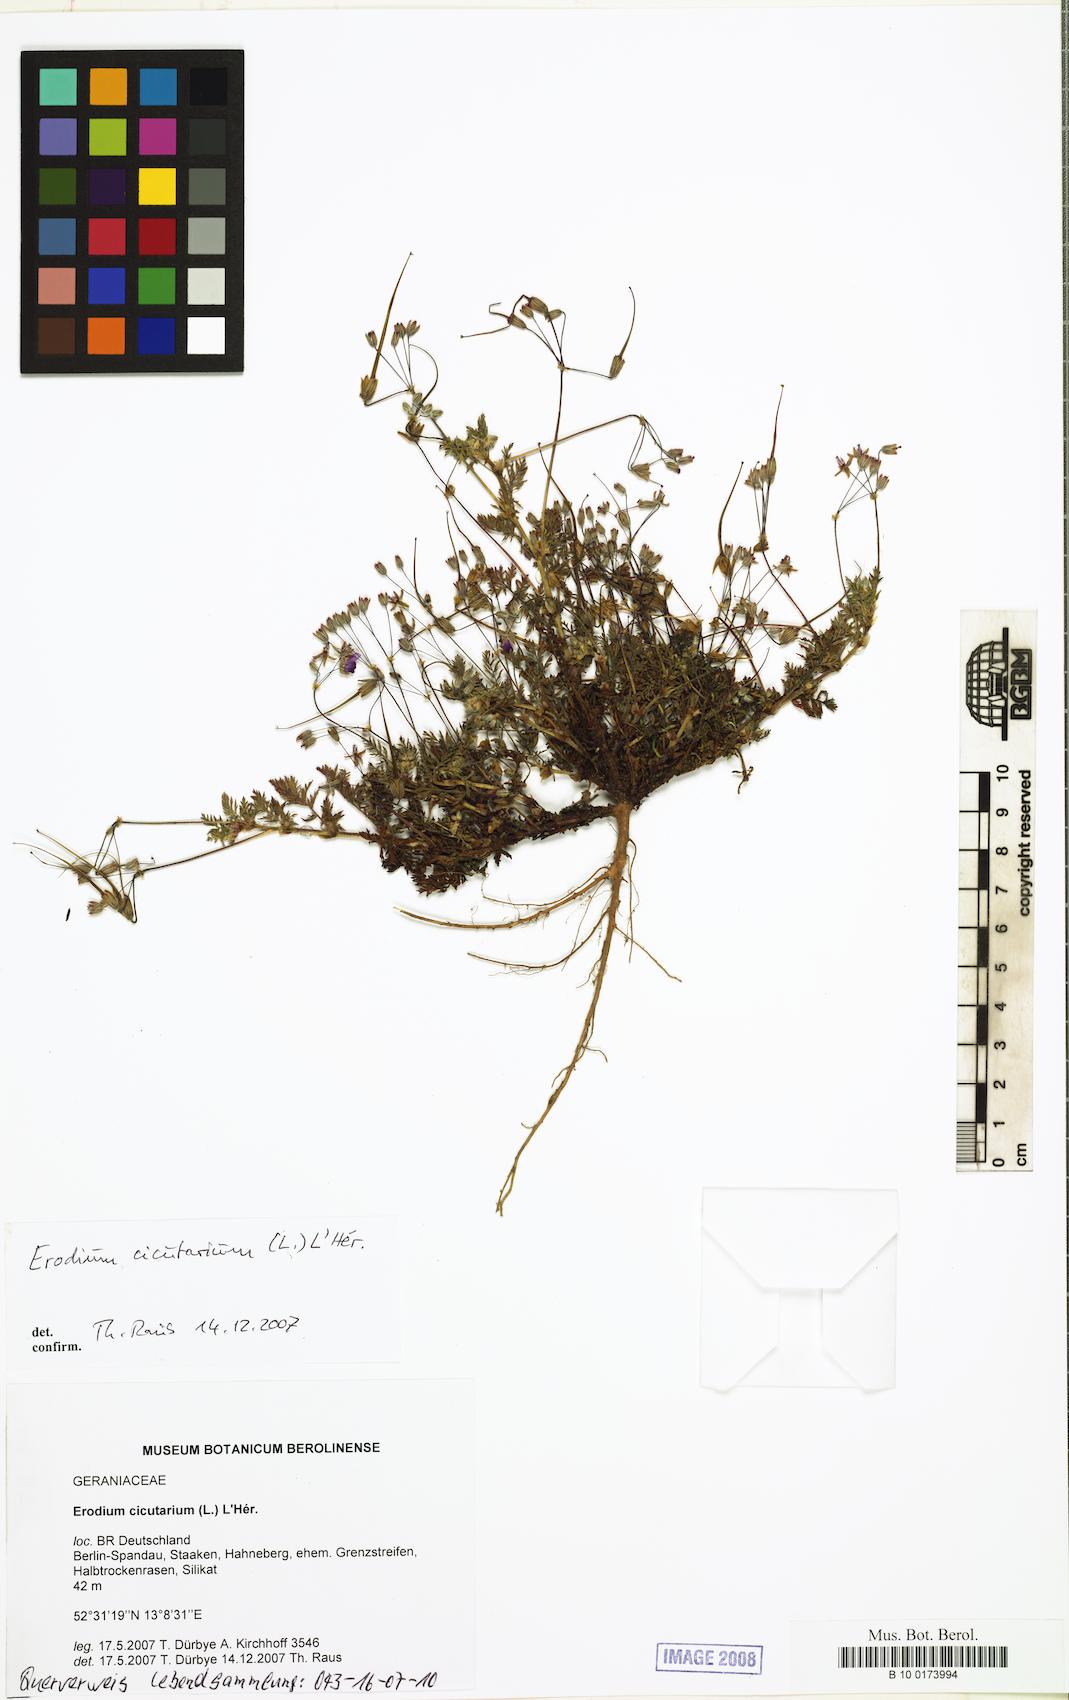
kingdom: Plantae
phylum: Tracheophyta
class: Magnoliopsida
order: Geraniales
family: Geraniaceae
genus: Erodium
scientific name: Erodium cicutarium
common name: Common stork's-bill
